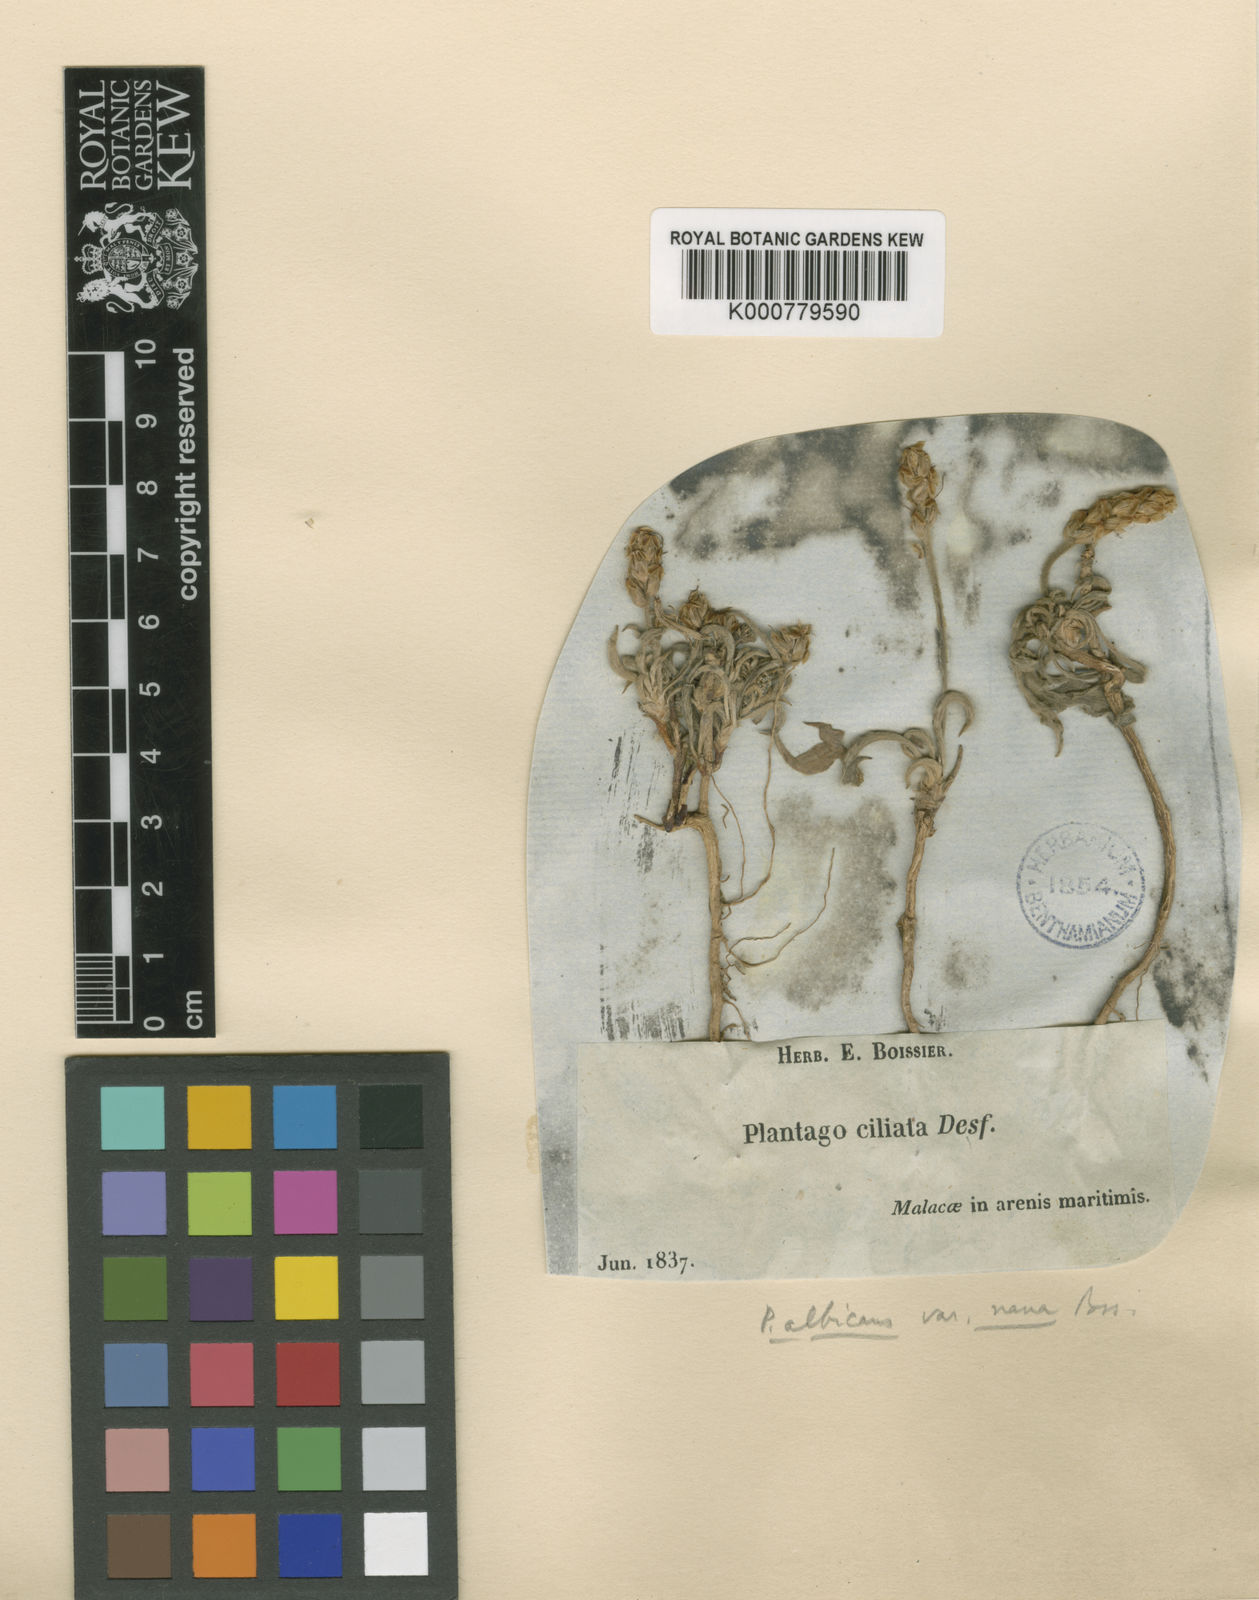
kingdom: Plantae
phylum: Tracheophyta
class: Magnoliopsida
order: Lamiales
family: Plantaginaceae
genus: Plantago
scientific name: Plantago albicans
